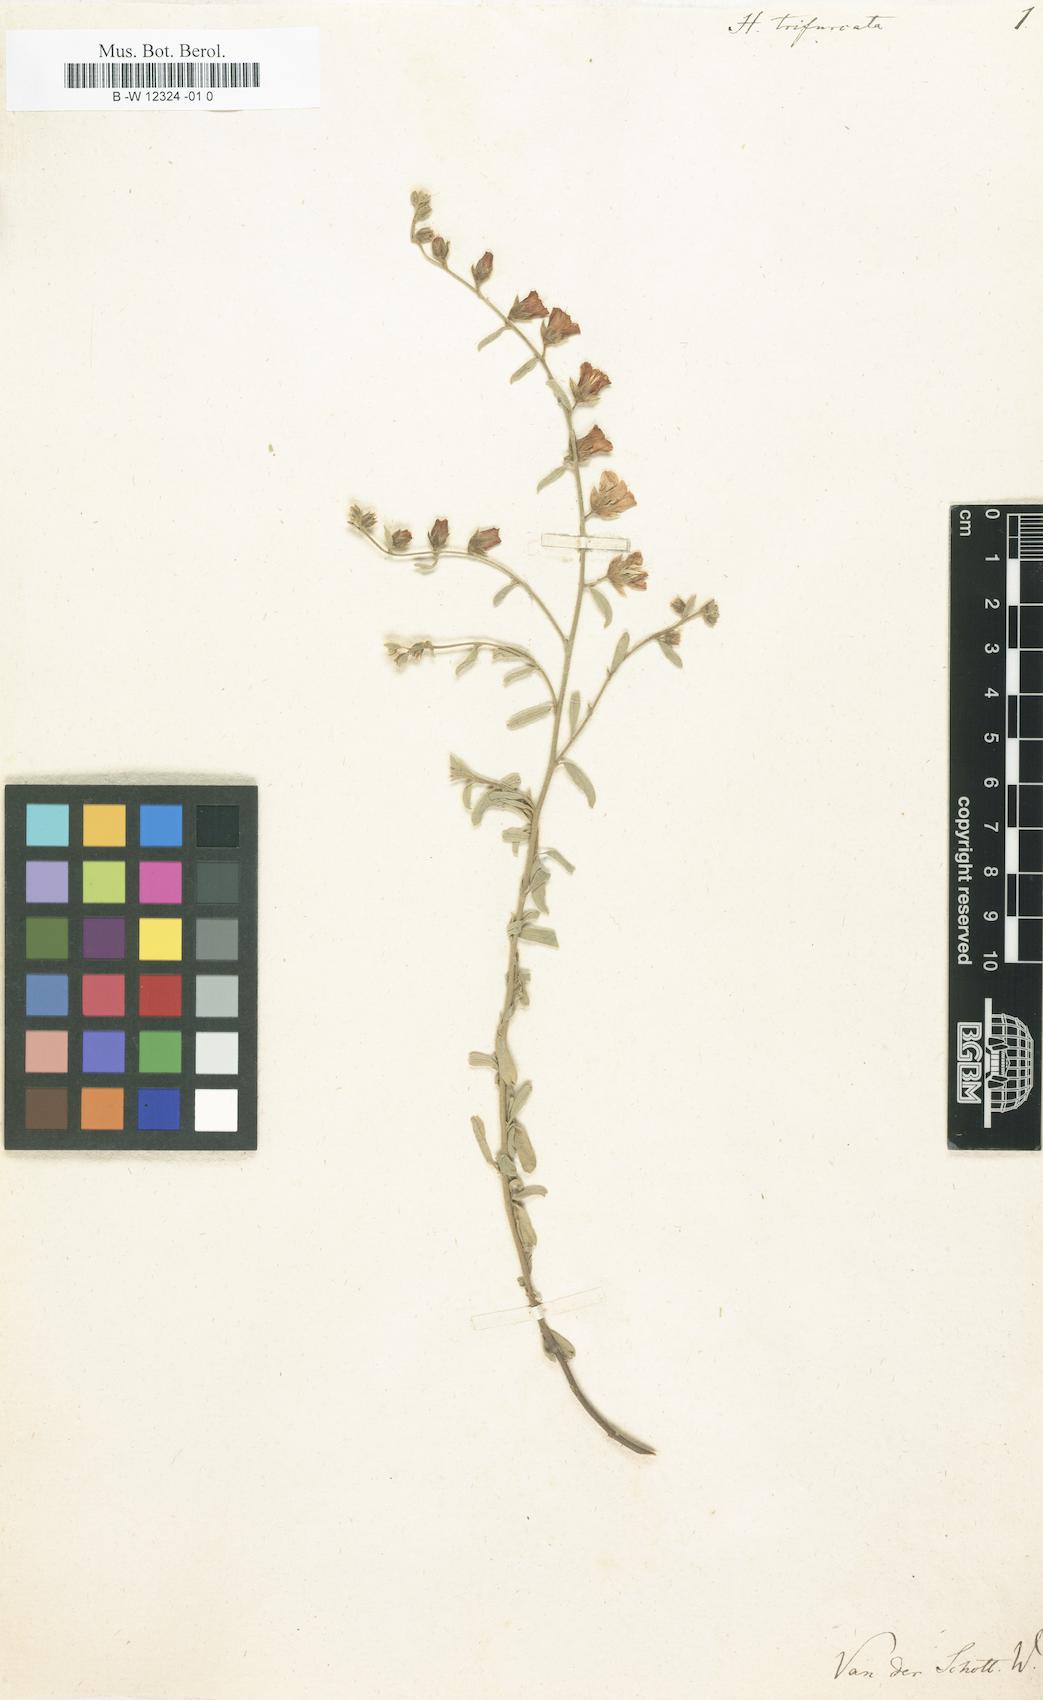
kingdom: Plantae
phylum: Tracheophyta
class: Magnoliopsida
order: Malvales
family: Malvaceae
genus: Hermannia
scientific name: Hermannia trifurca
